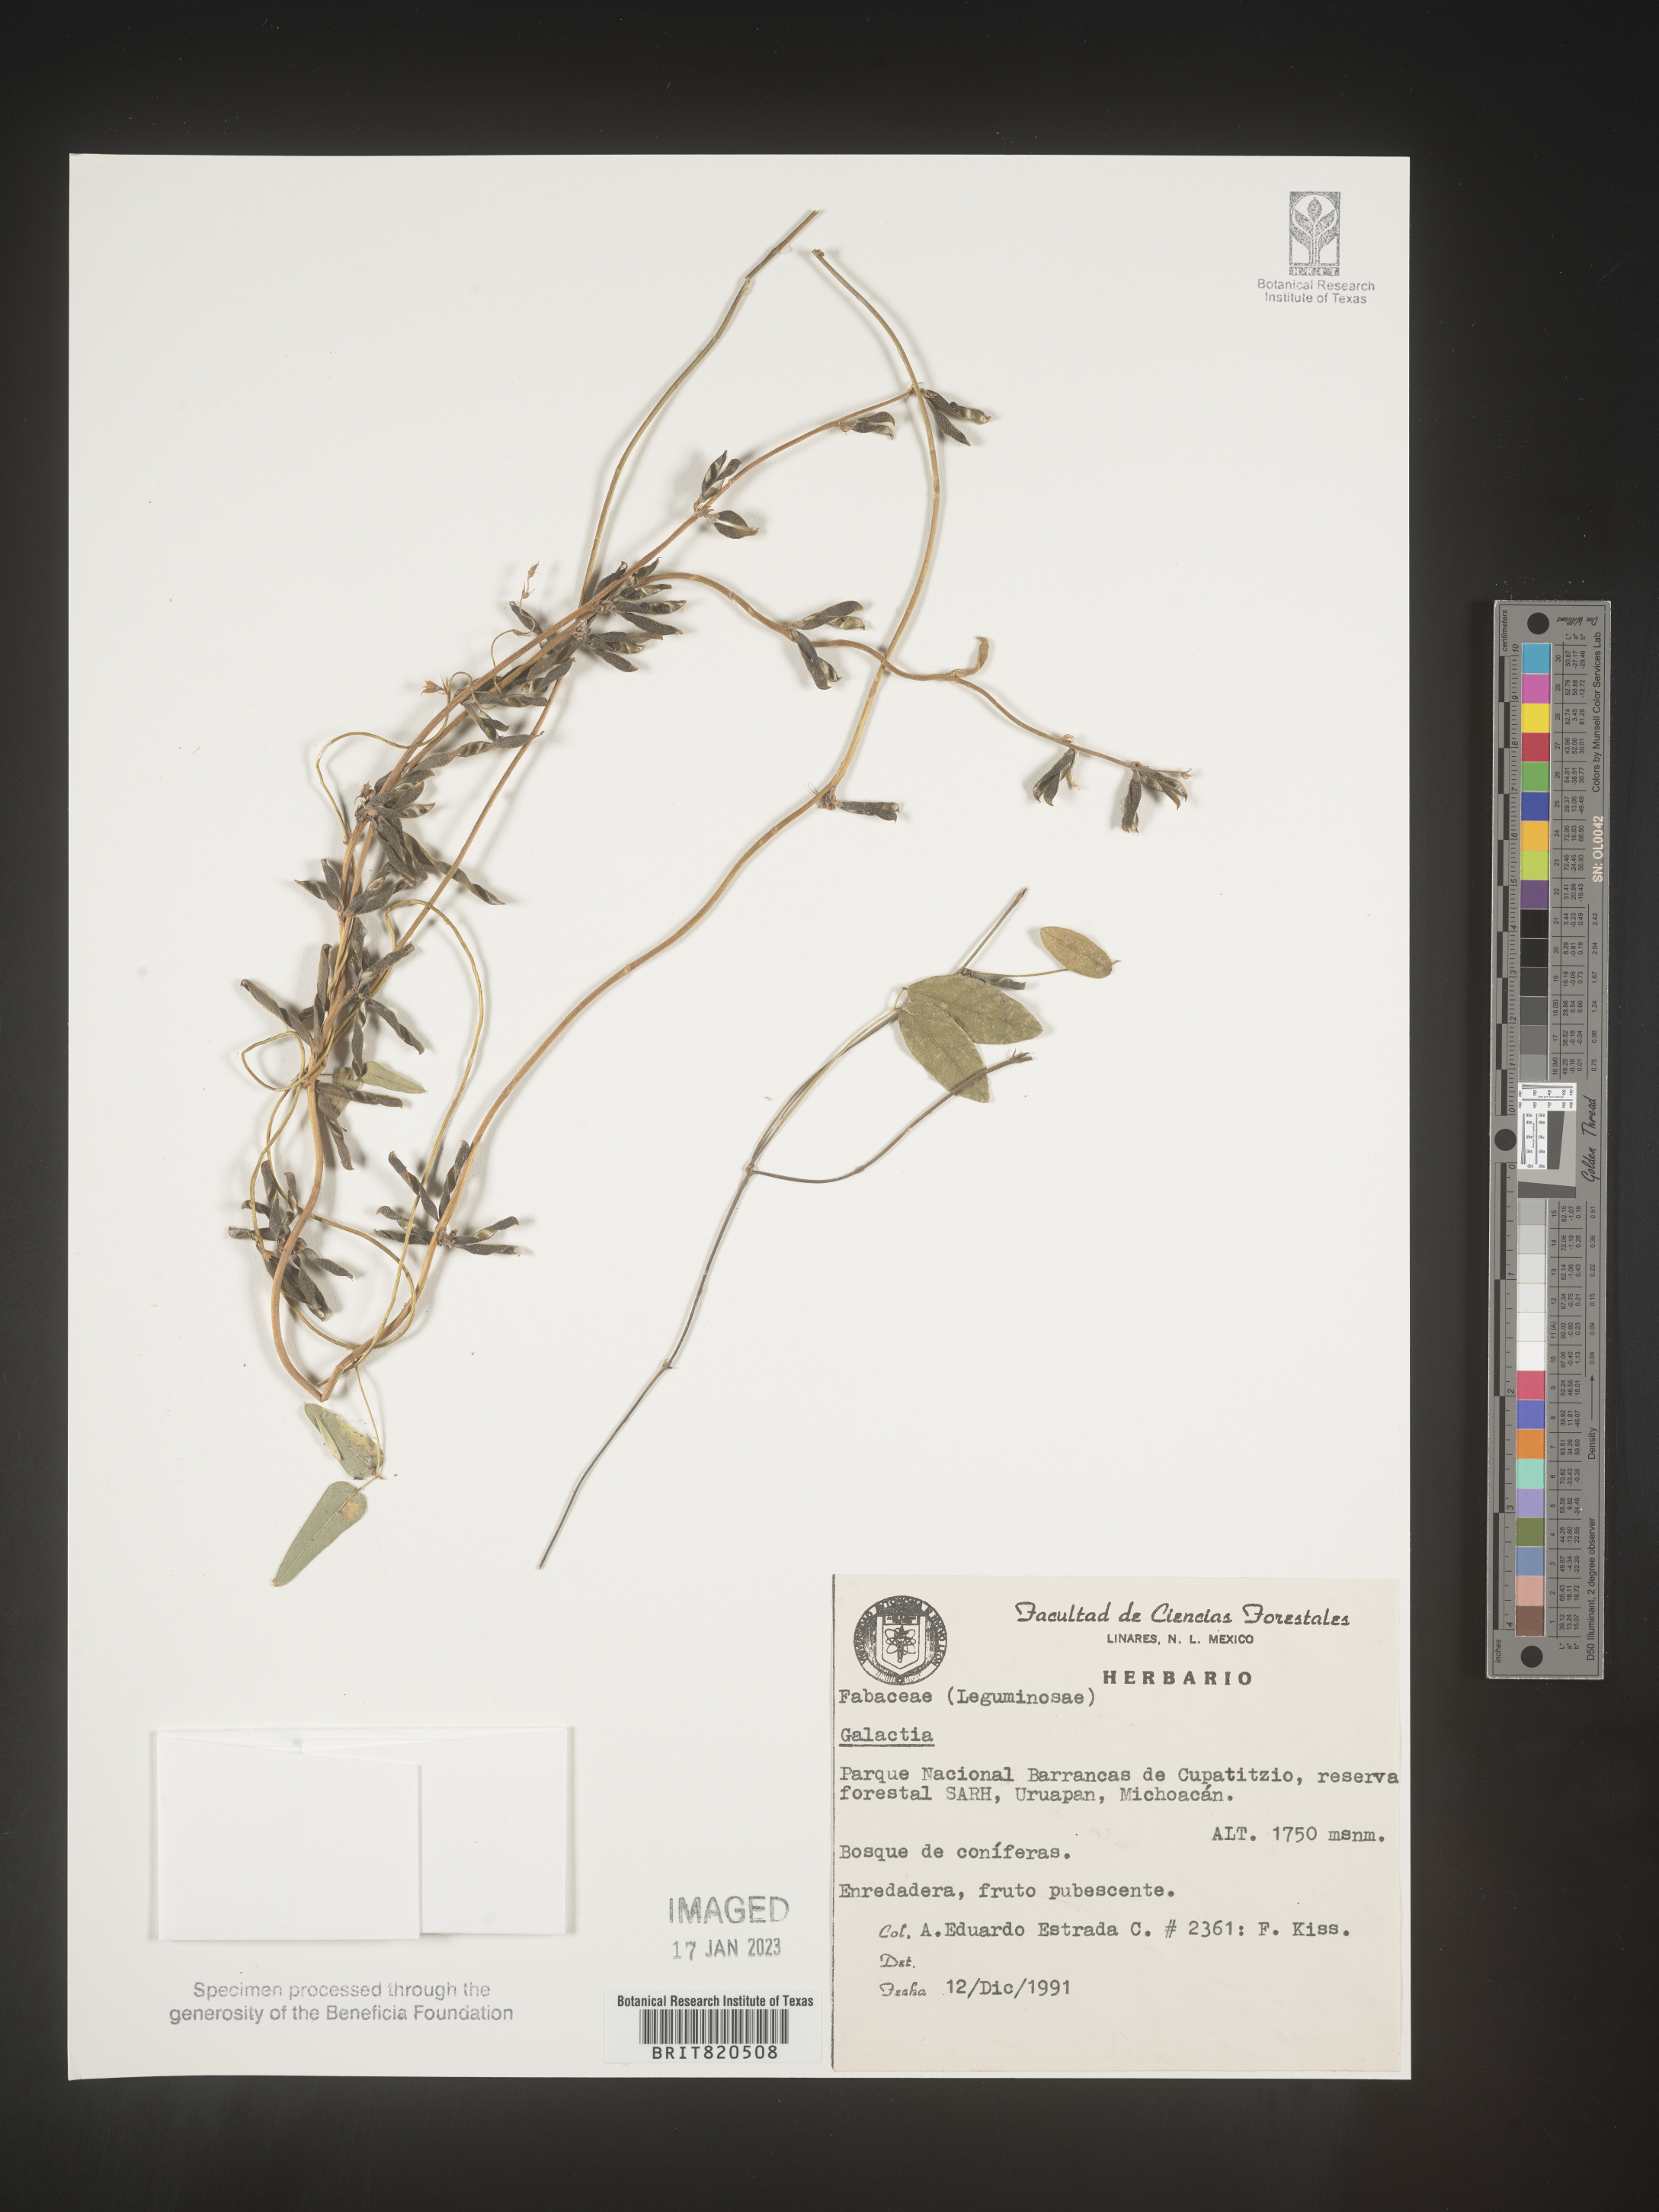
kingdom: Plantae
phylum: Tracheophyta
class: Magnoliopsida
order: Fabales
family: Fabaceae
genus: Galactia
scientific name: Galactia
